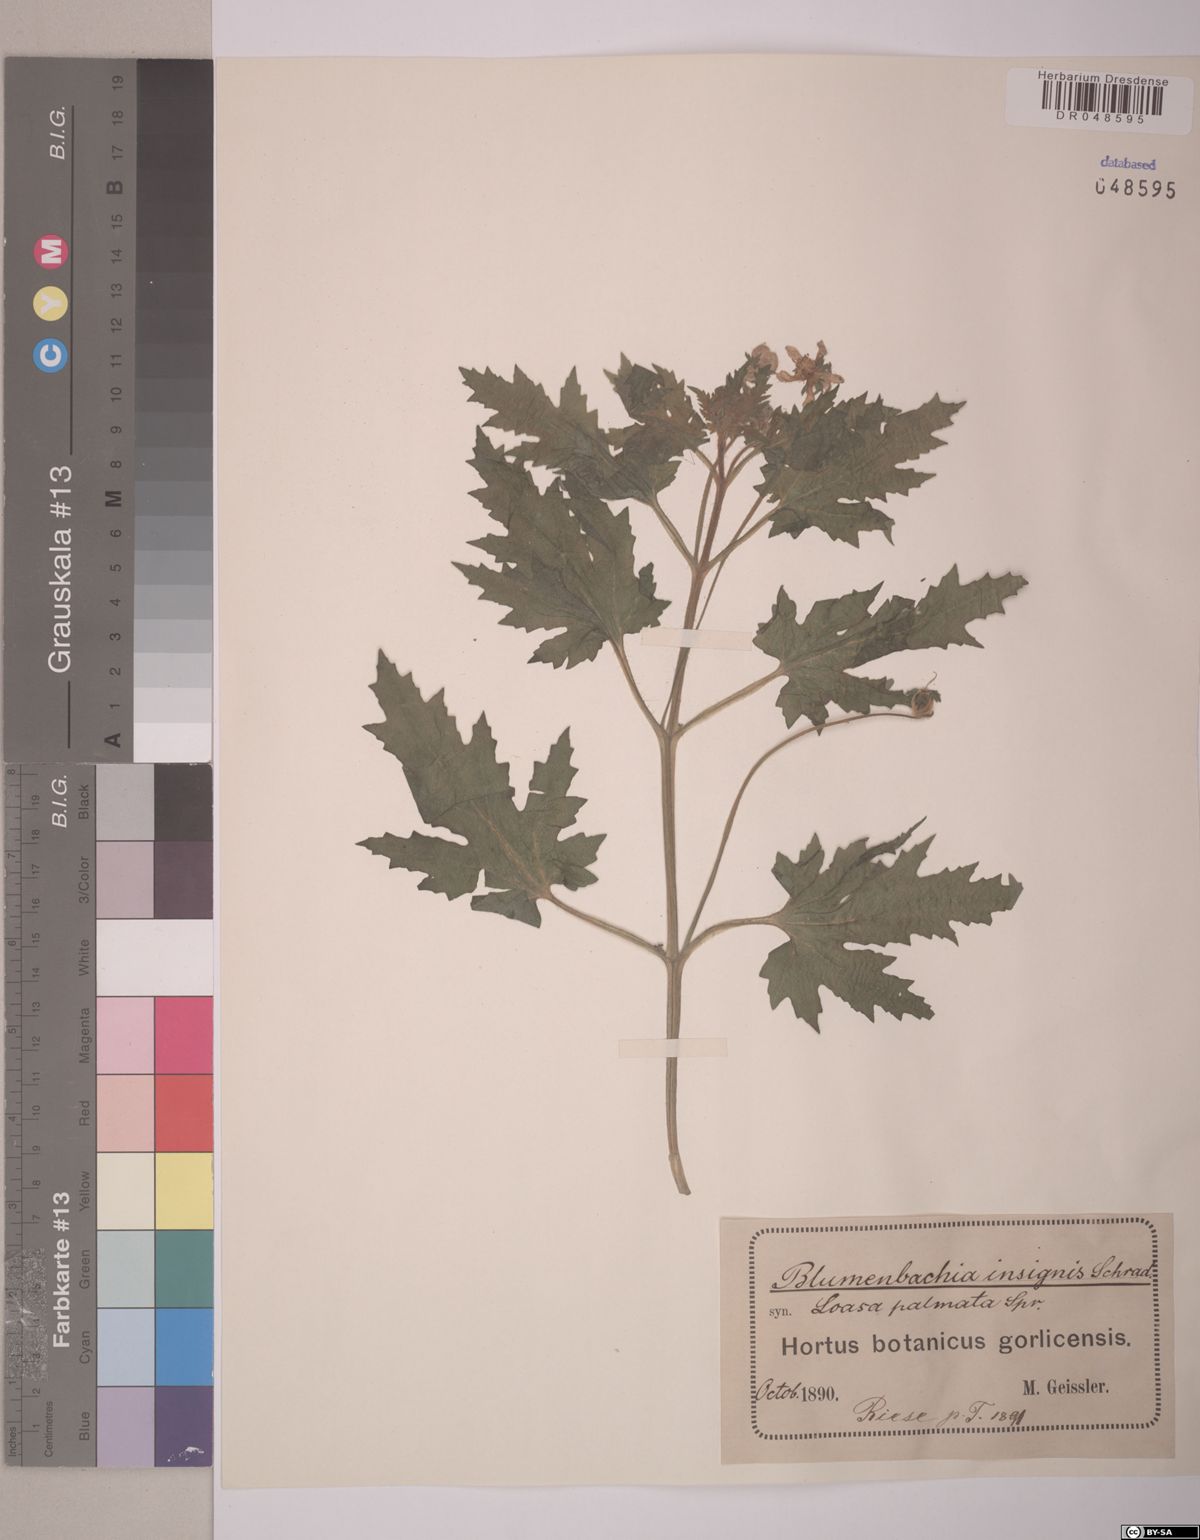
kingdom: Plantae
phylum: Tracheophyta
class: Magnoliopsida
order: Cornales
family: Loasaceae
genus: Blumenbachia
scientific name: Blumenbachia insignis
